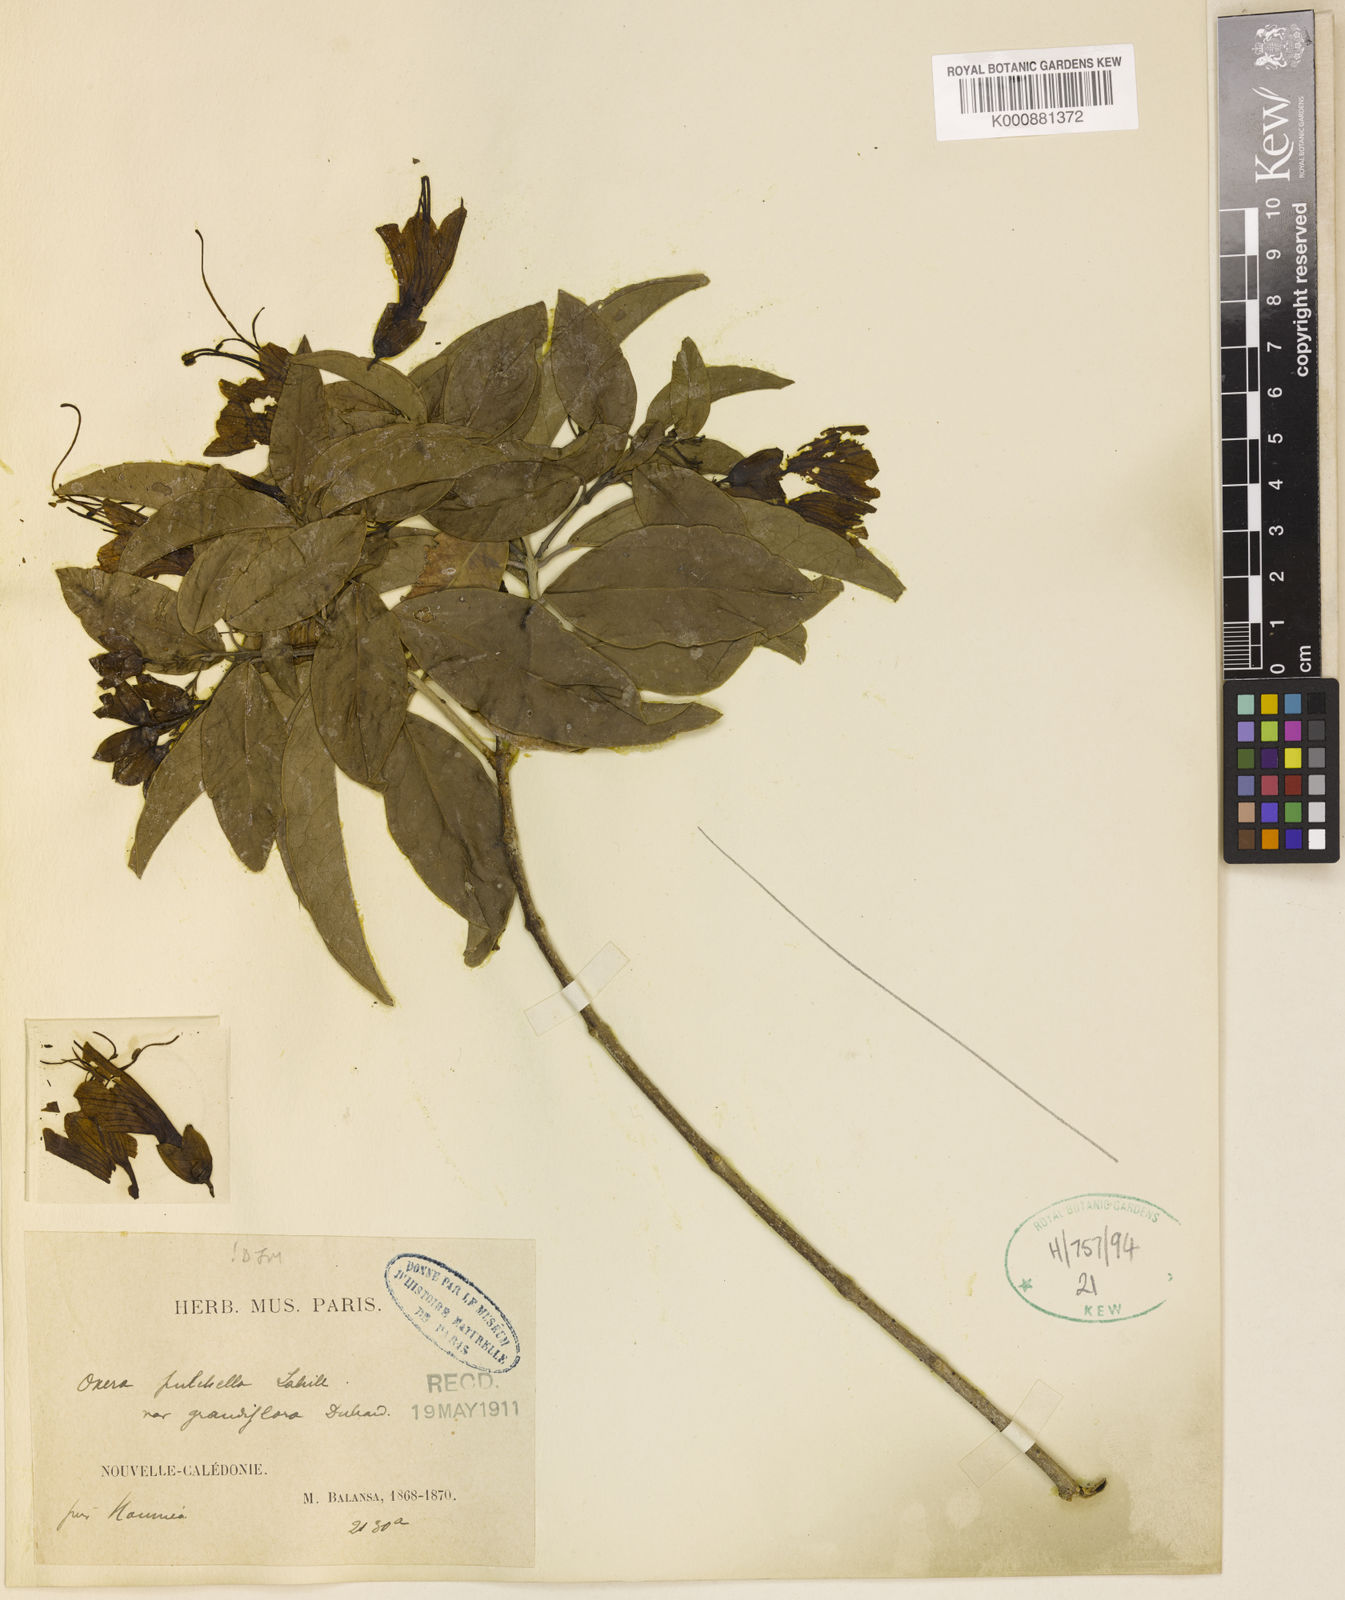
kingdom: Plantae
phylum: Tracheophyta
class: Magnoliopsida
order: Lamiales
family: Lamiaceae
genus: Oxera
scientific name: Oxera pulchella
